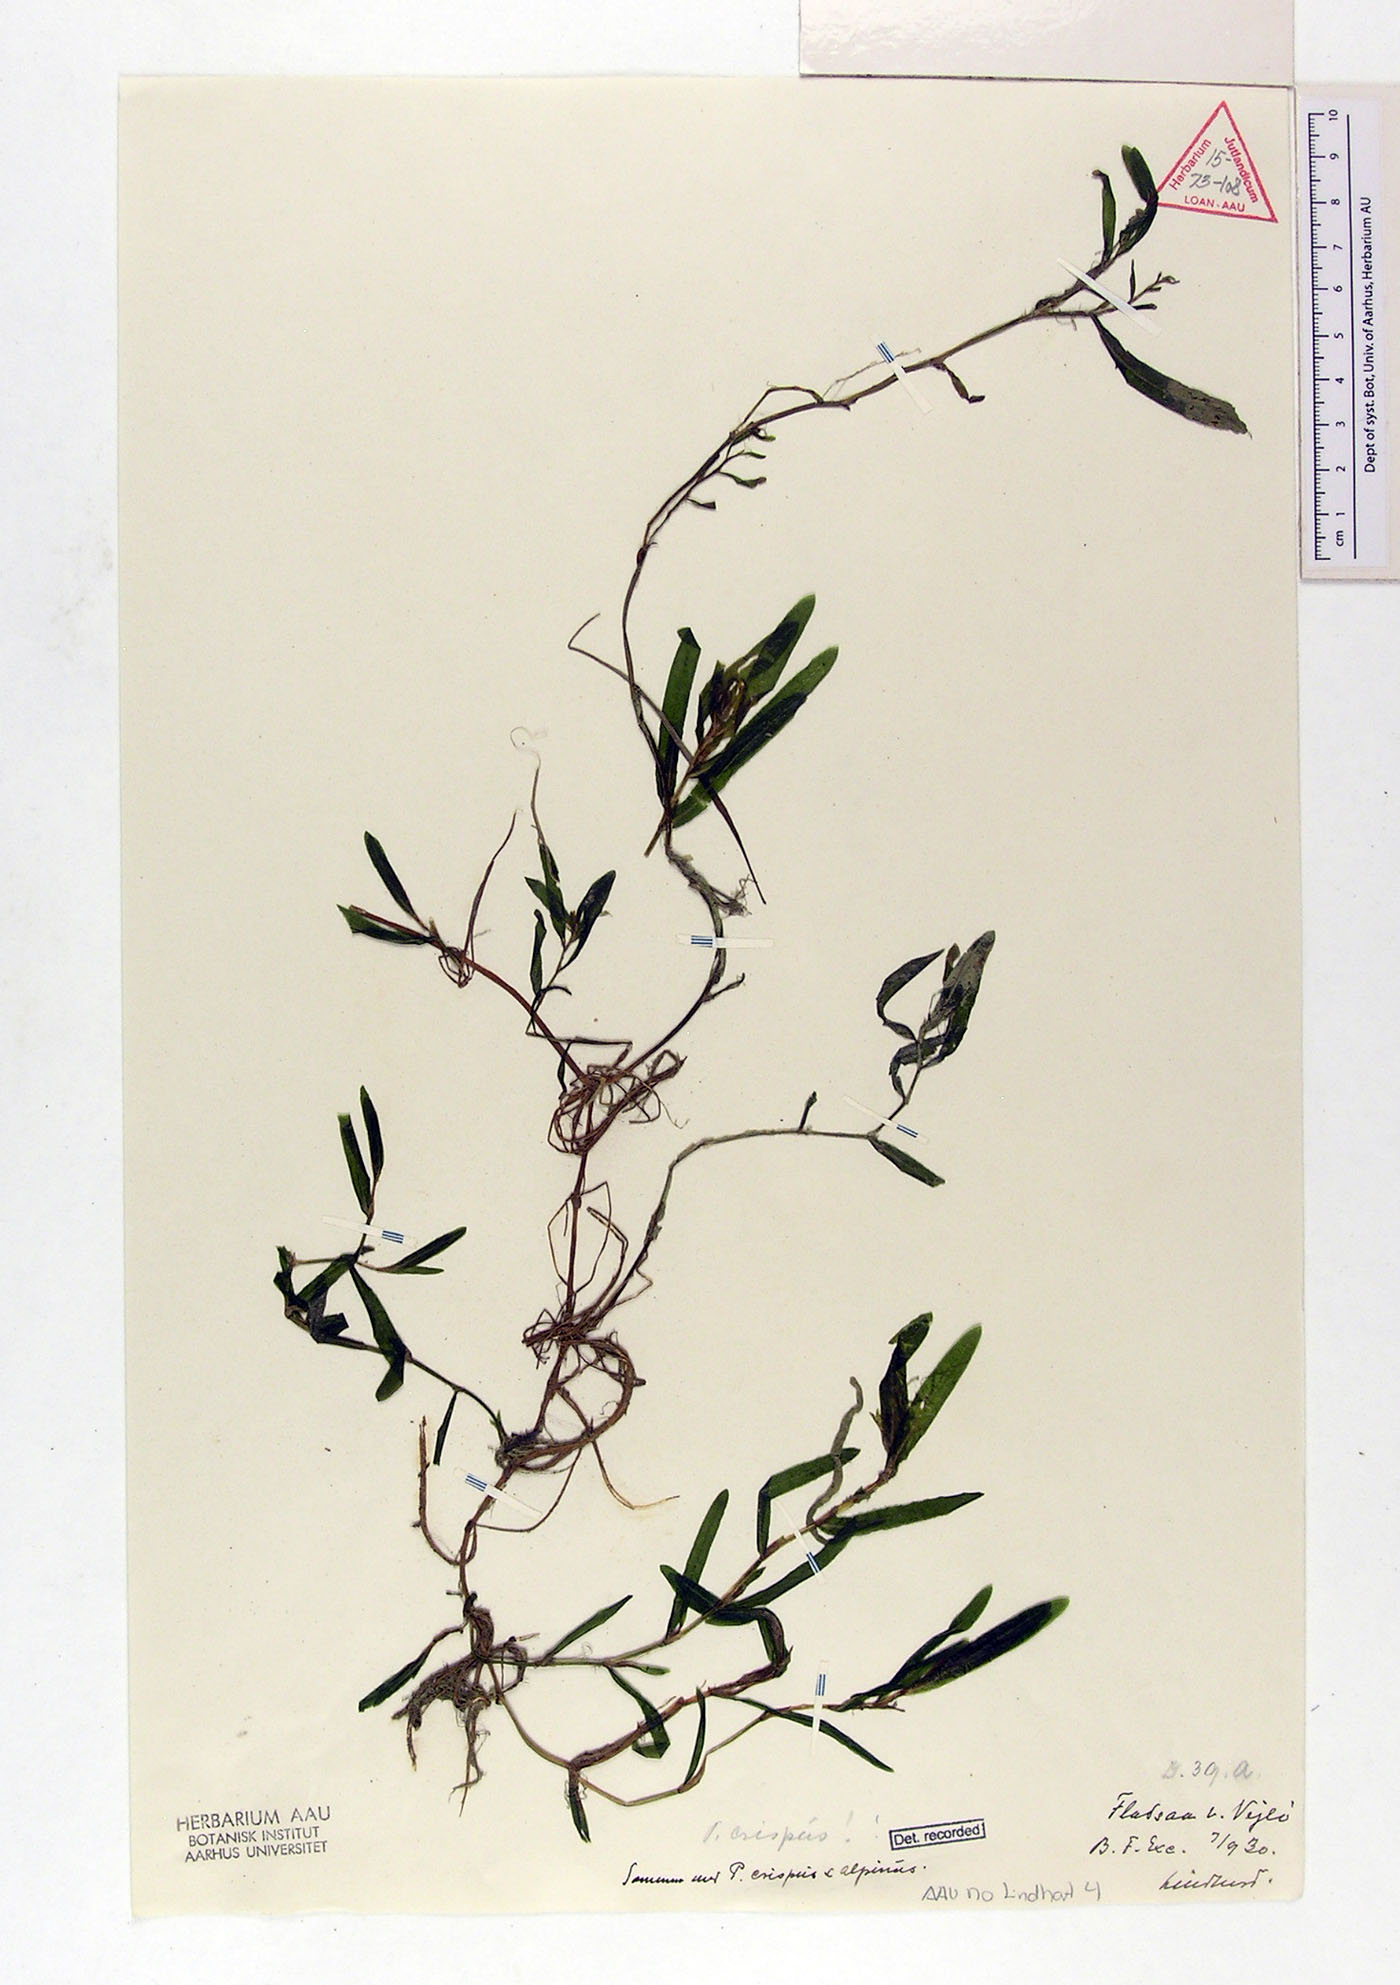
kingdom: Plantae
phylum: Tracheophyta
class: Liliopsida
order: Alismatales
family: Potamogetonaceae
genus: Potamogeton
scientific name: Potamogeton crispus
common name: Curled pondweed
